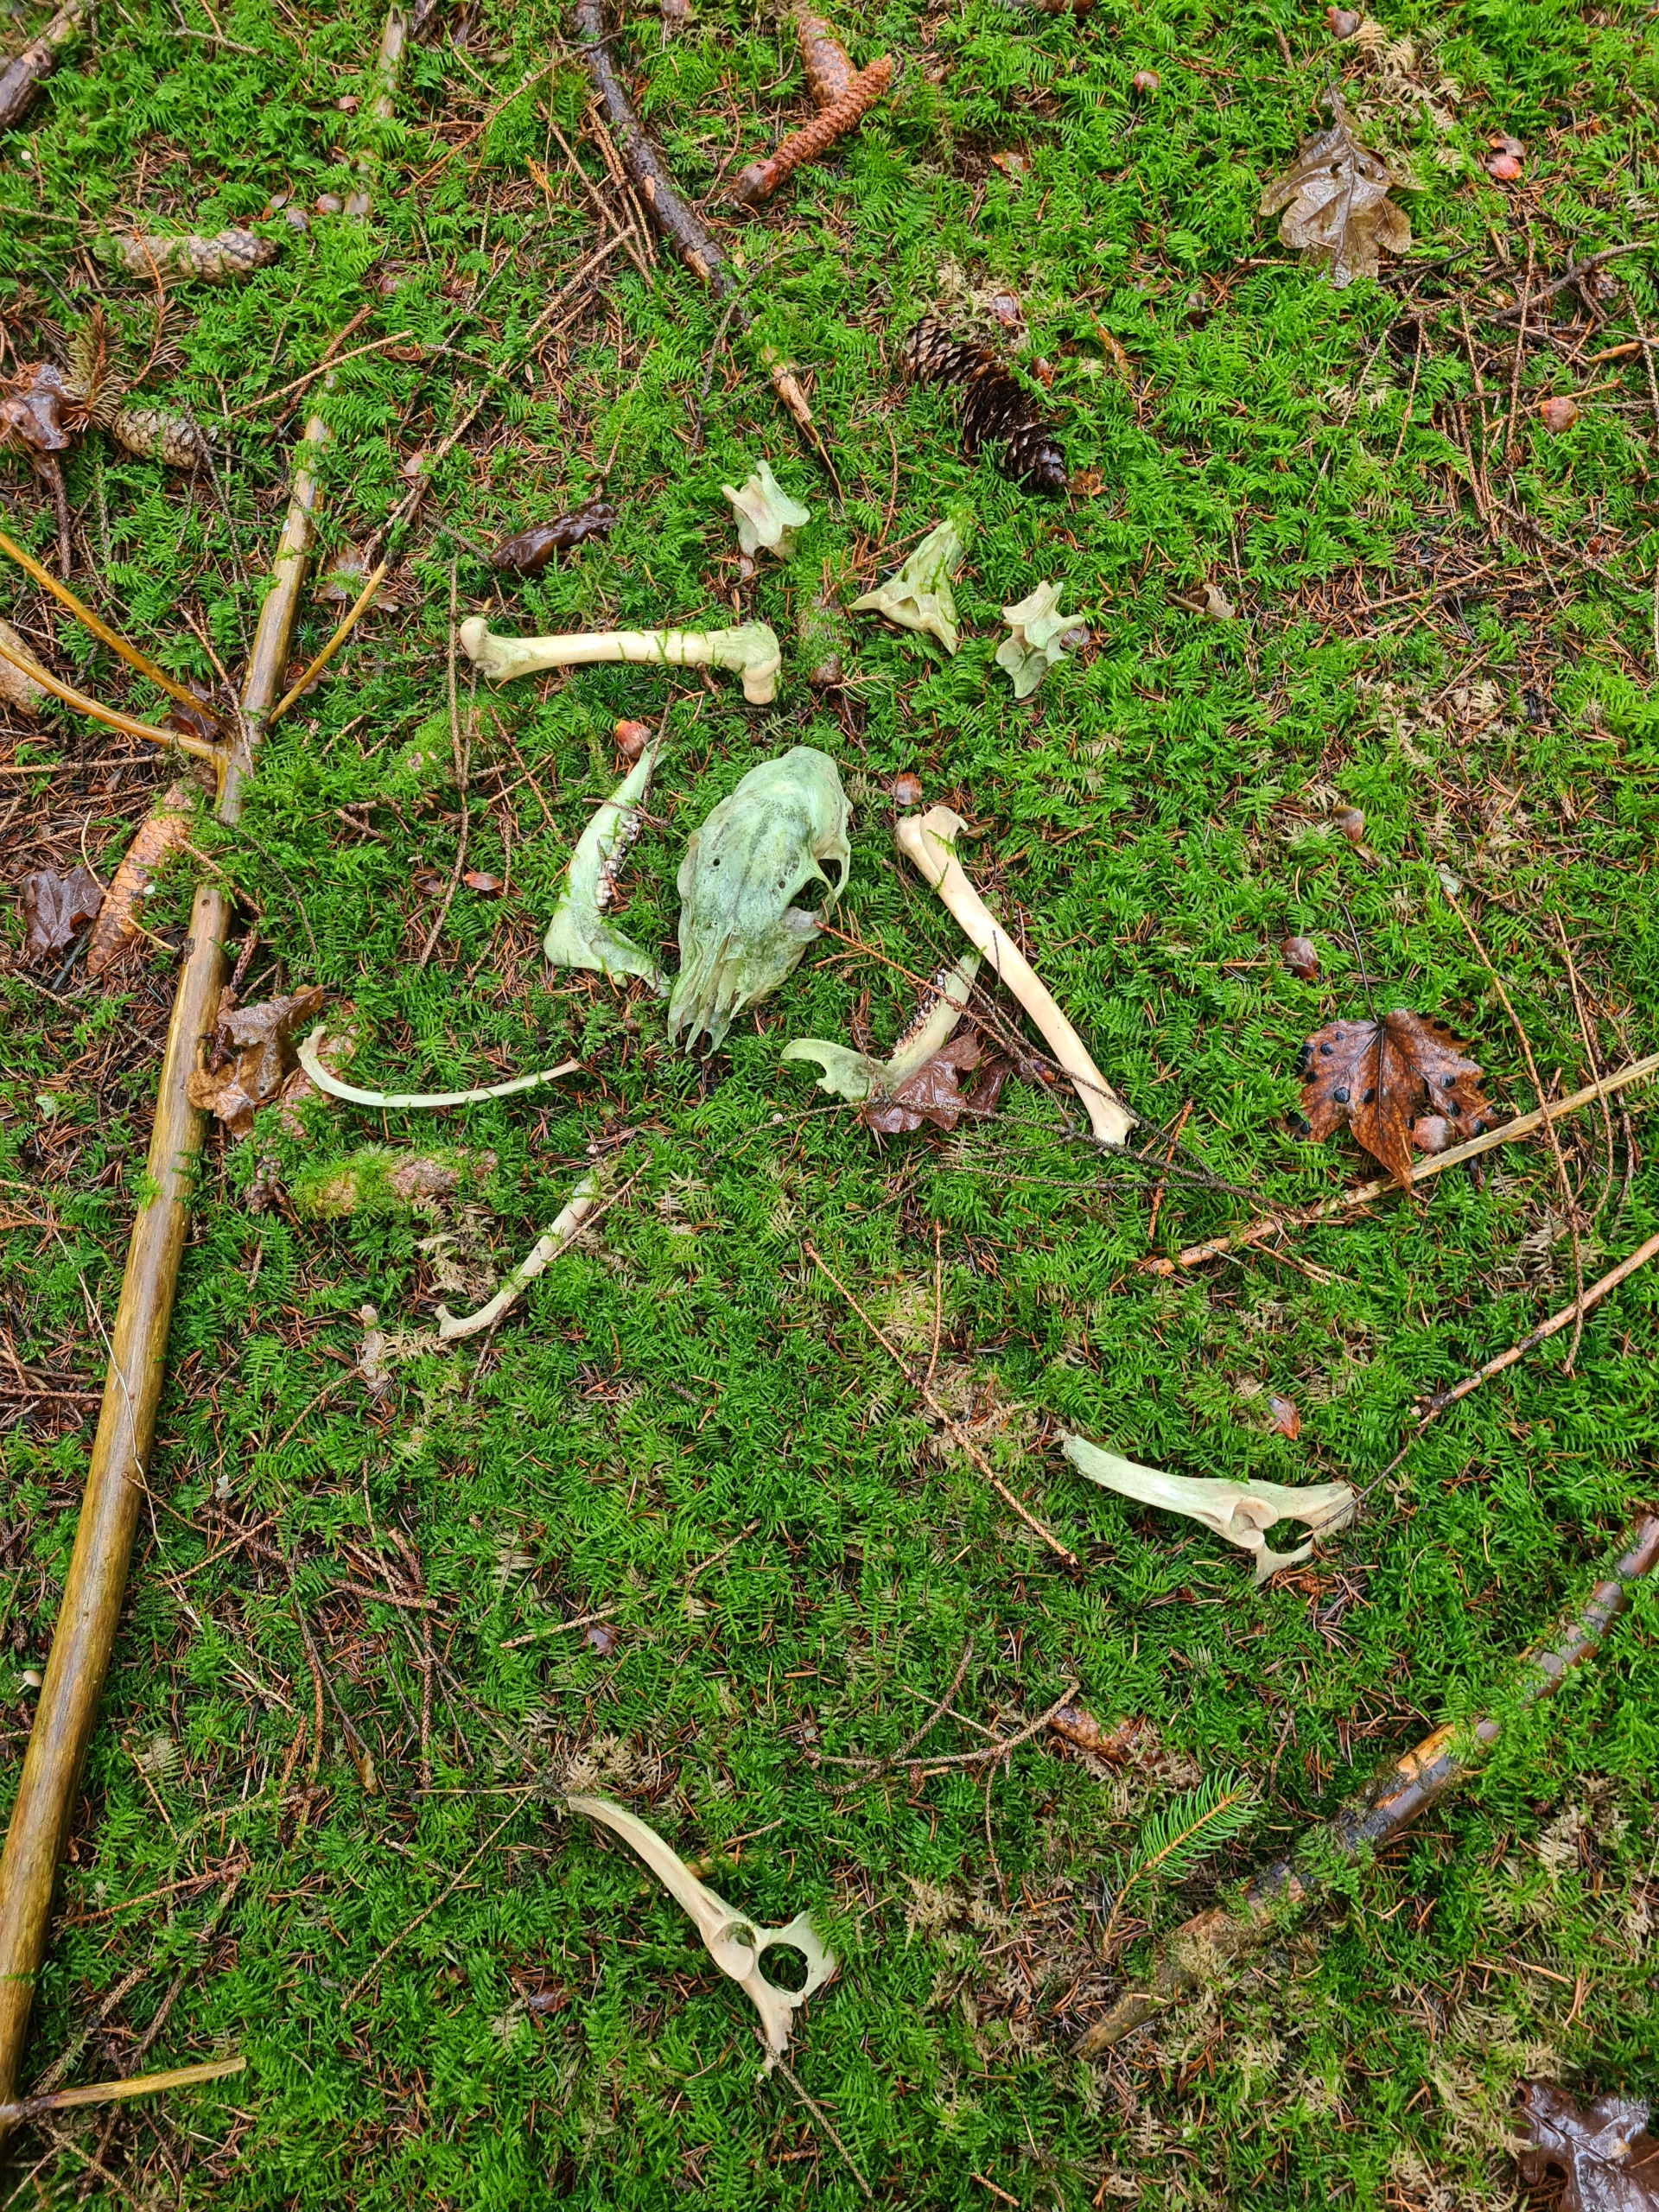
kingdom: Animalia
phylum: Chordata
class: Mammalia
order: Artiodactyla
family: Cervidae
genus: Capreolus
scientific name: Capreolus capreolus
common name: Rådyr
